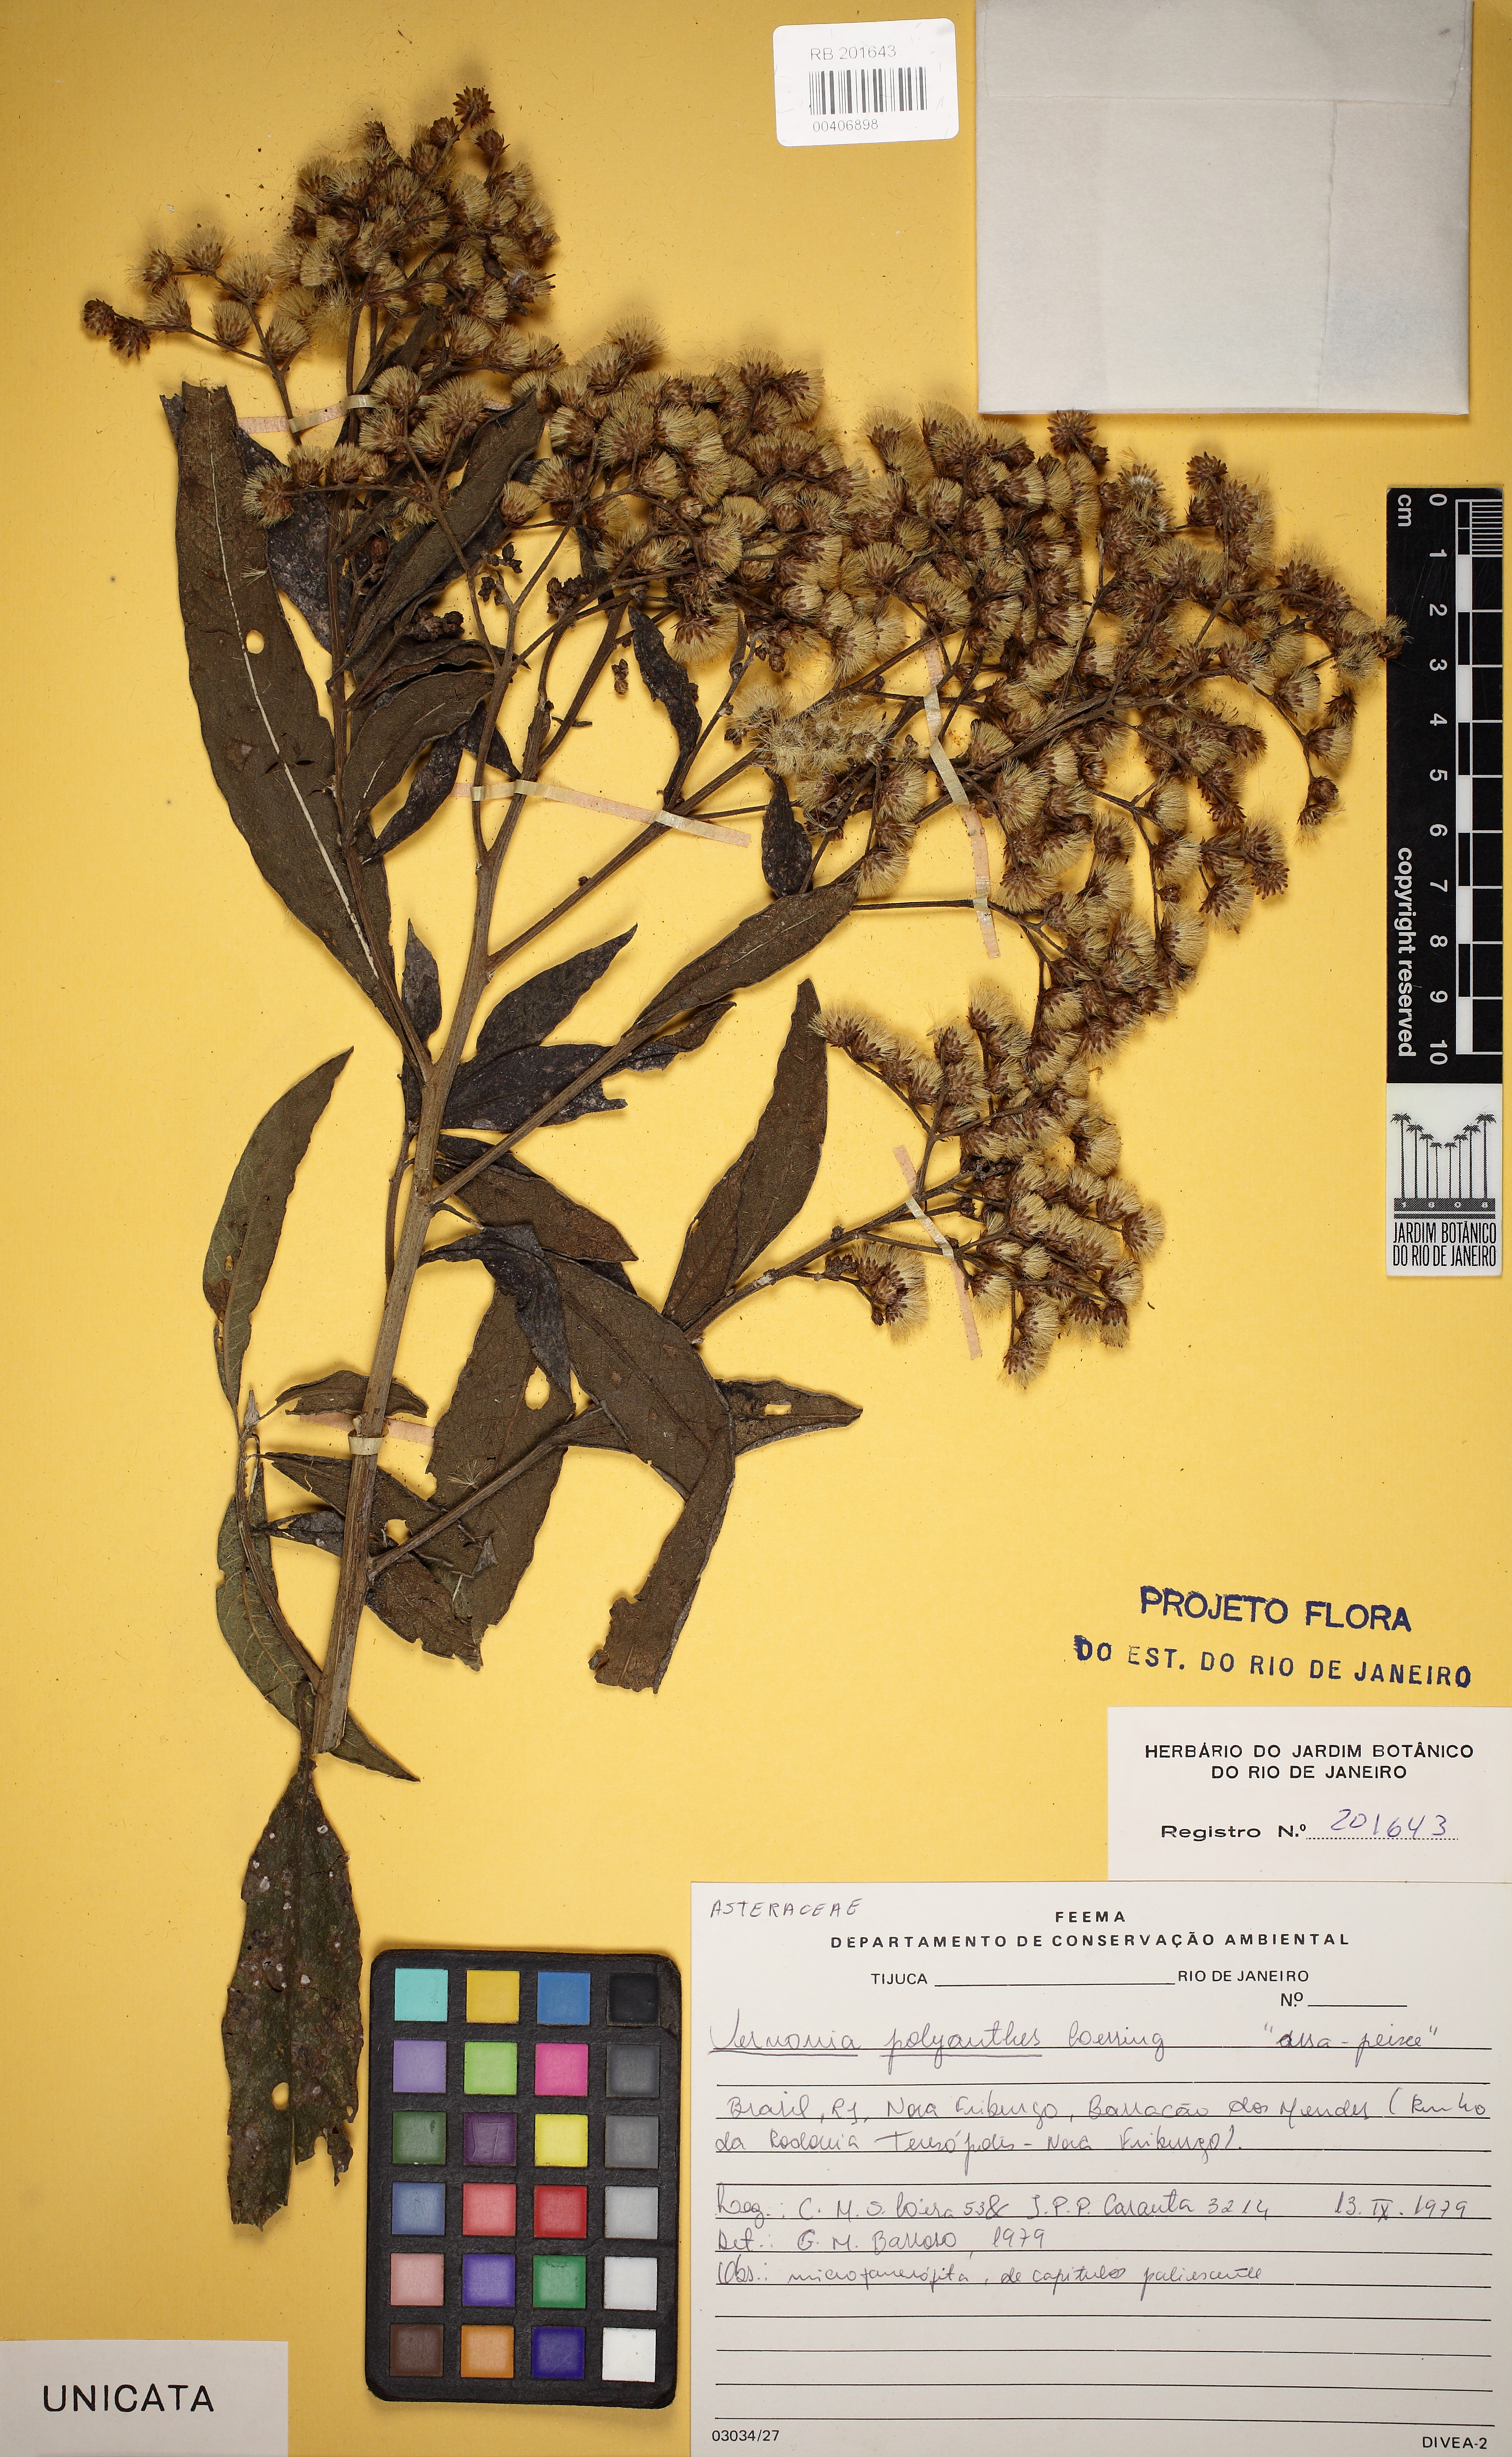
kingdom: Plantae
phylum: Tracheophyta
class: Magnoliopsida
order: Asterales
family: Asteraceae
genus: Vernonanthura
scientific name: Vernonanthura polyanthes
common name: Tree aster
